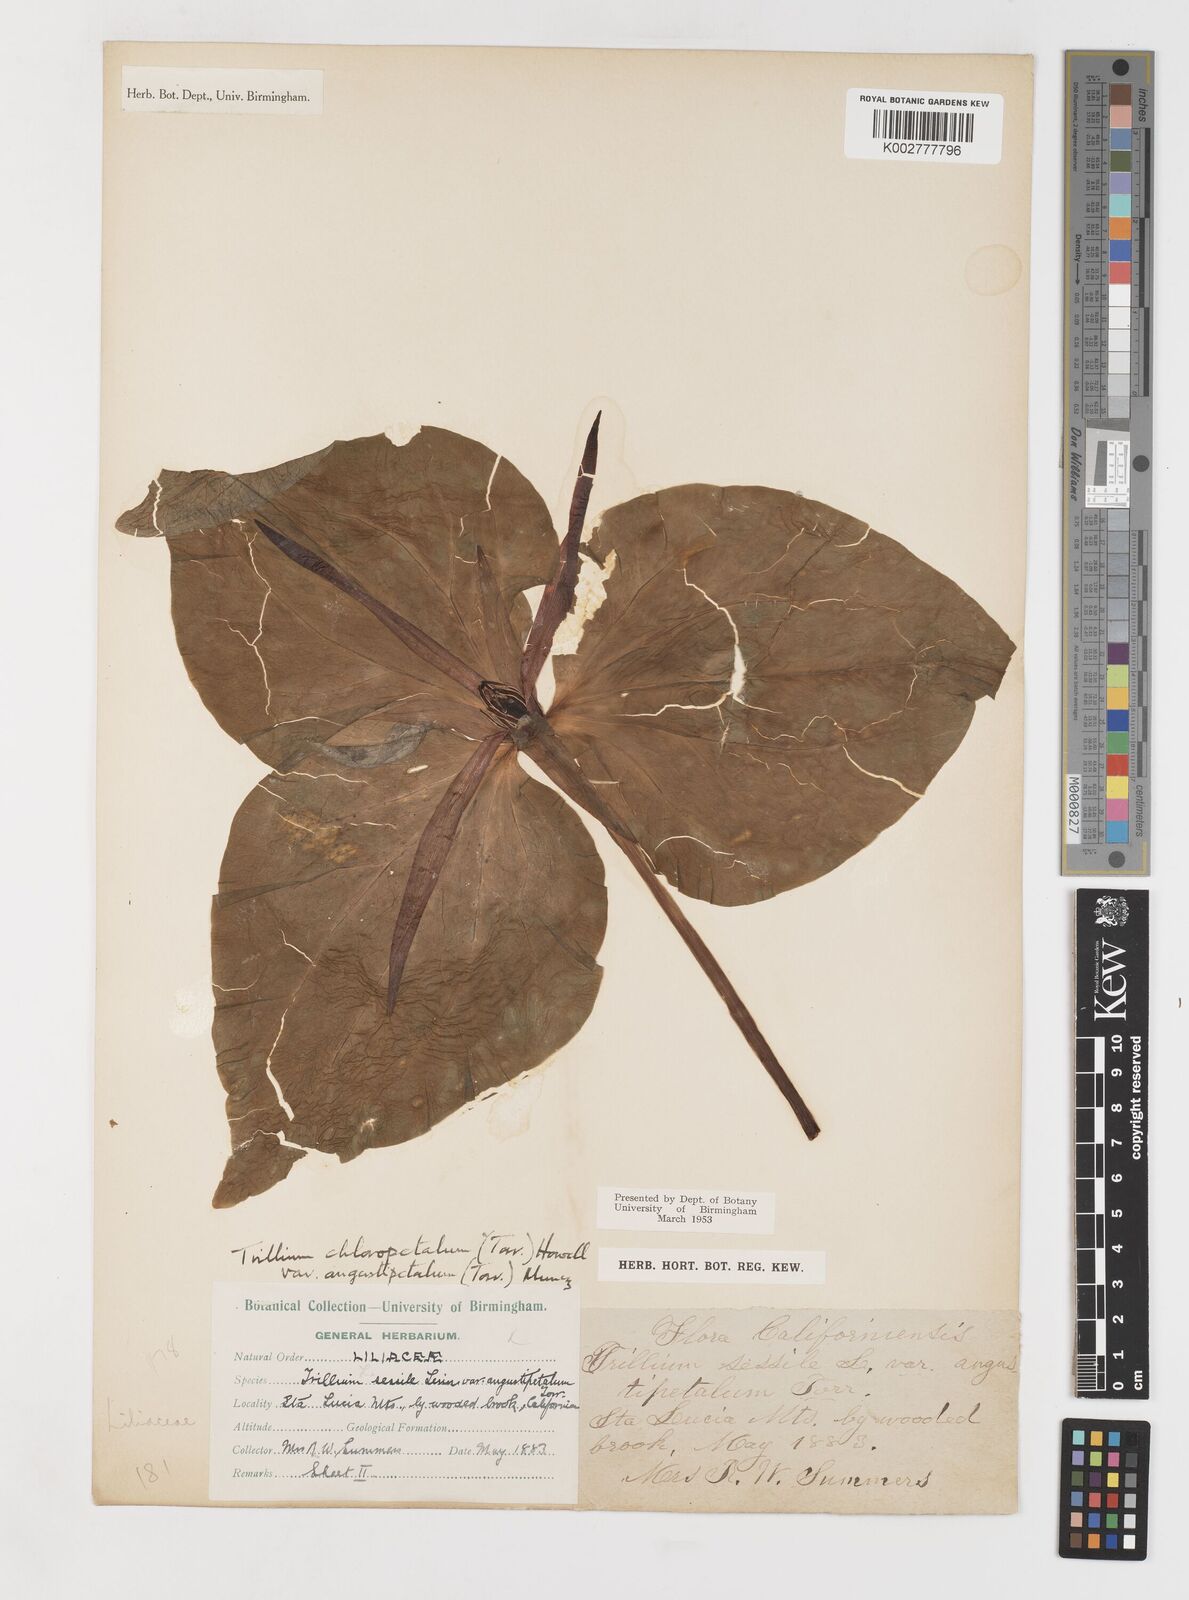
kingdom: Plantae
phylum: Tracheophyta
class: Liliopsida
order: Liliales
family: Melanthiaceae
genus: Trillium
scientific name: Trillium pusillum
